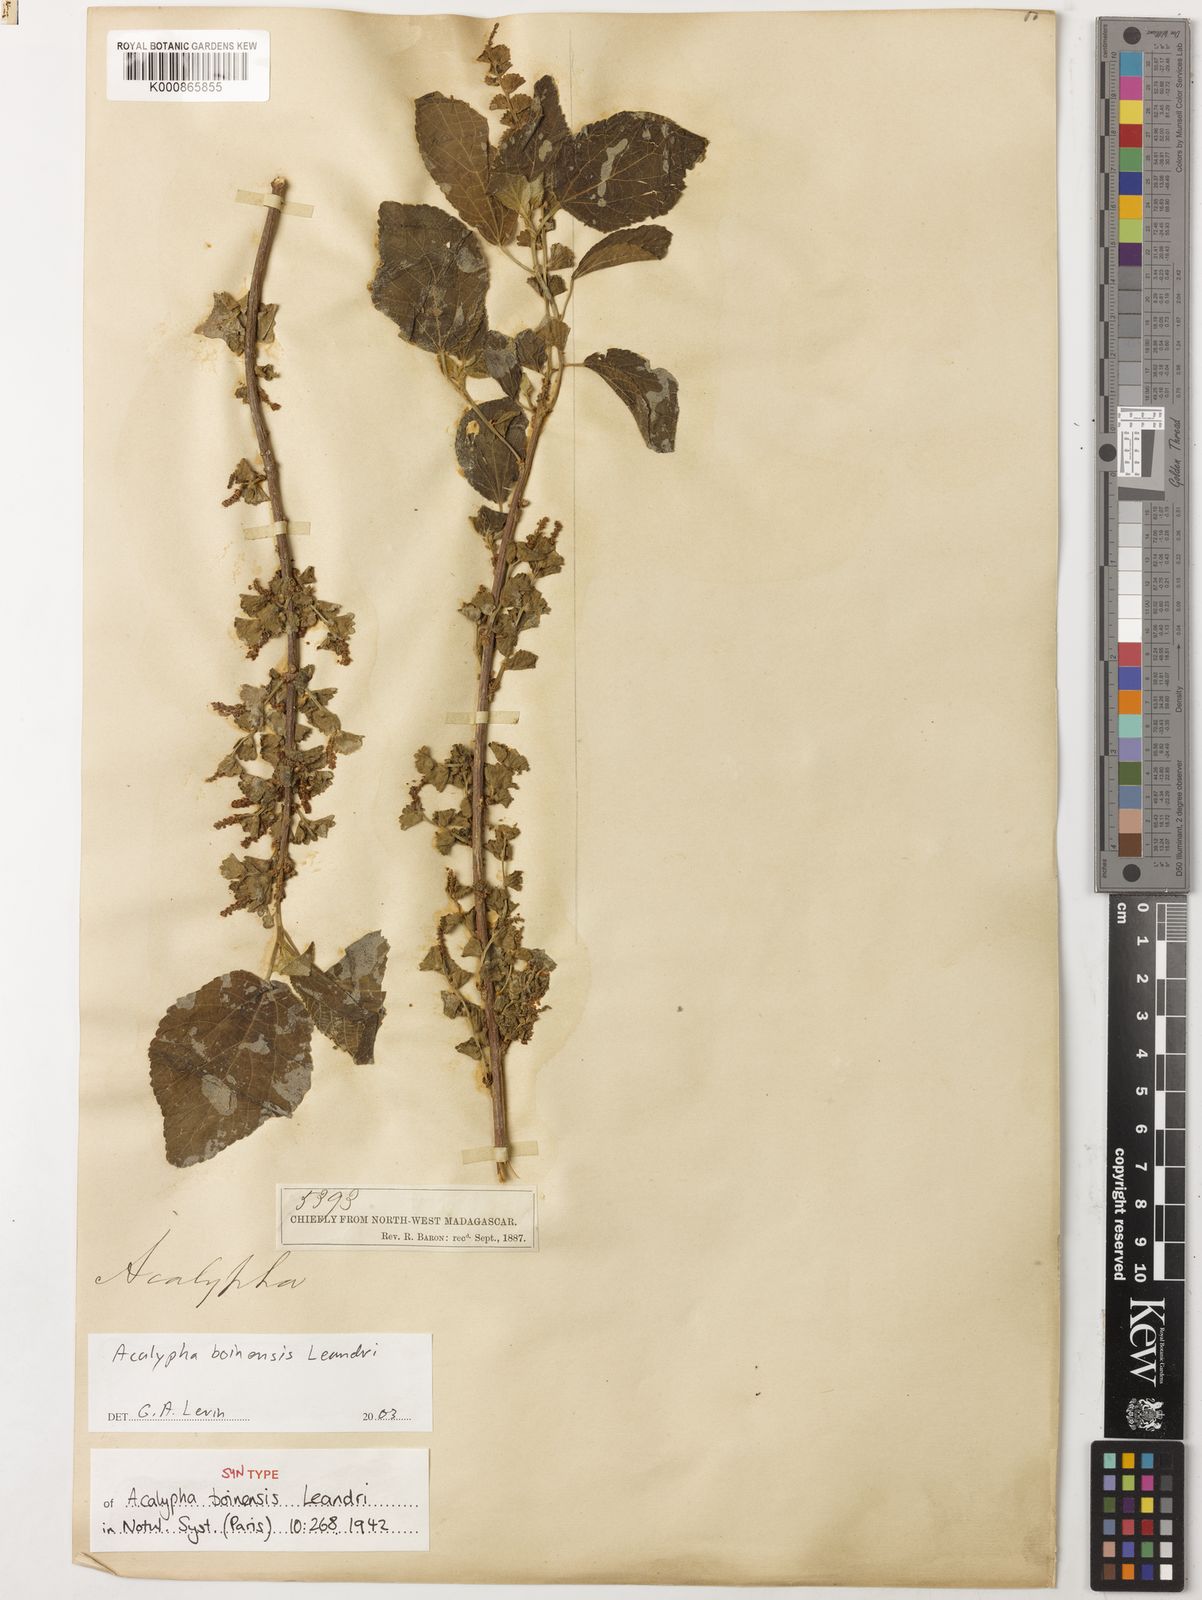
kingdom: Plantae
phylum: Tracheophyta
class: Magnoliopsida
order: Malpighiales
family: Euphorbiaceae
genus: Acalypha
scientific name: Acalypha boinensis
